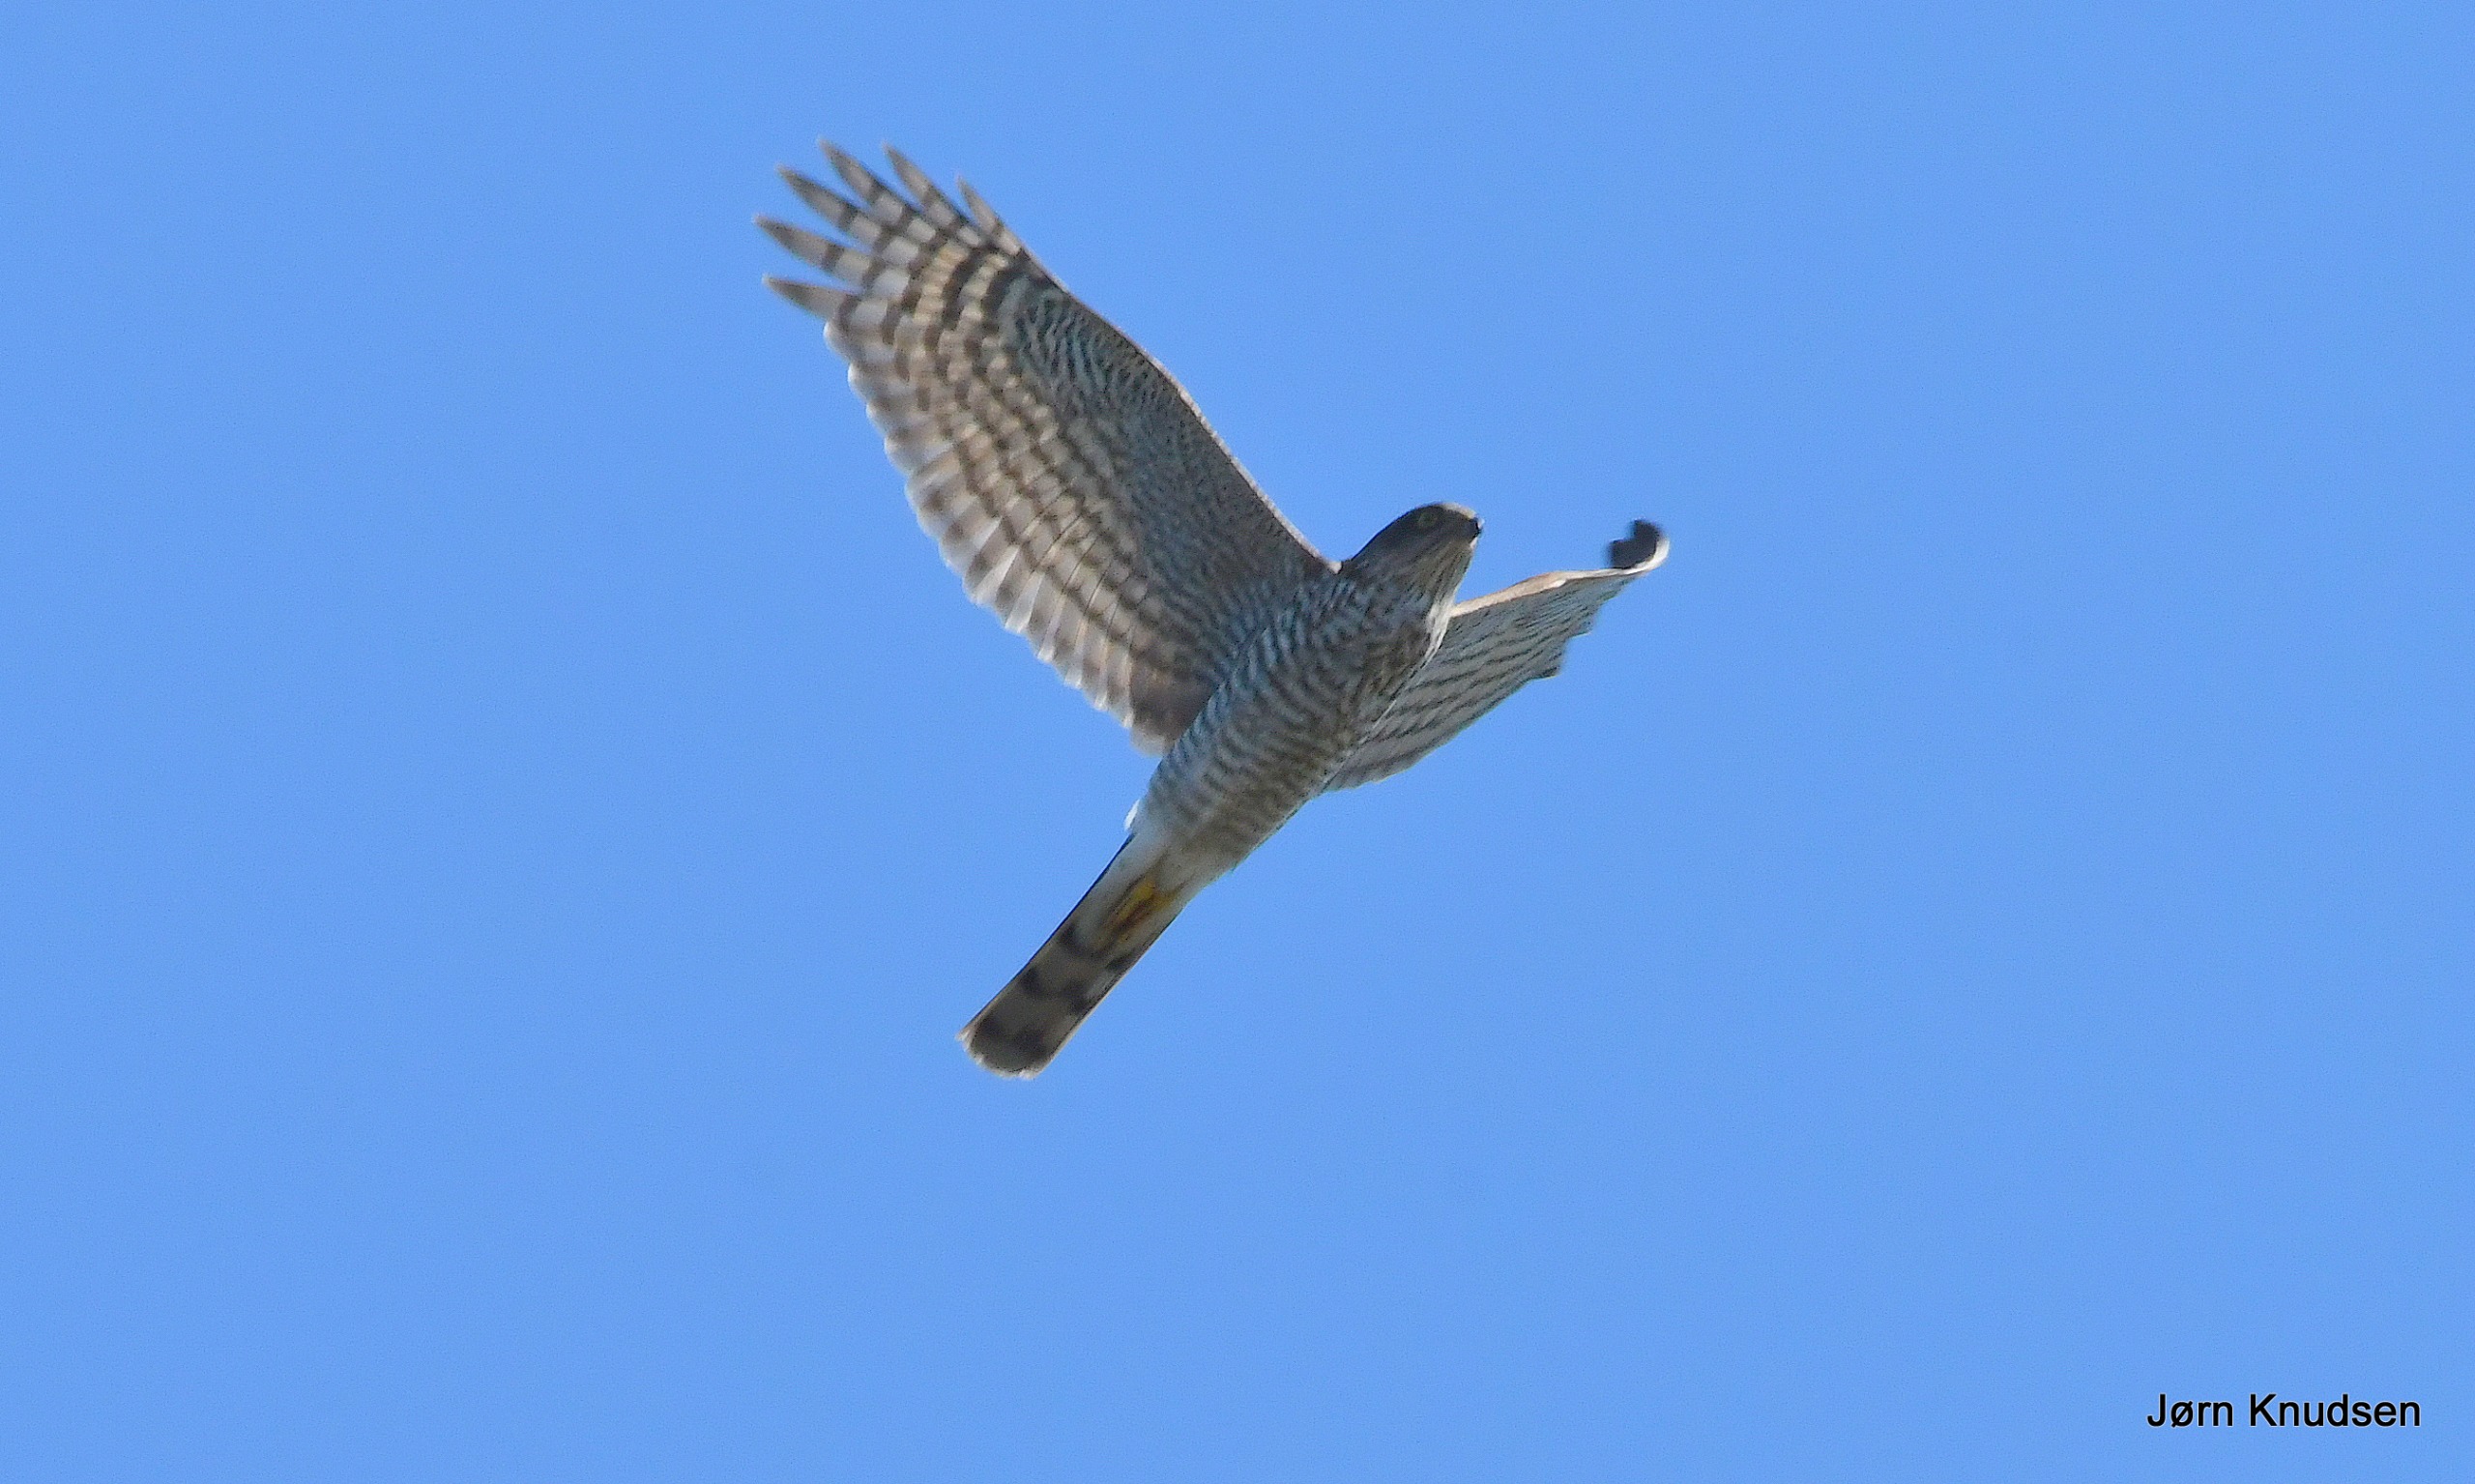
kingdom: Animalia
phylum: Chordata
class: Aves
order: Accipitriformes
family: Accipitridae
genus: Accipiter
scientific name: Accipiter nisus
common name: Spurvehøg
